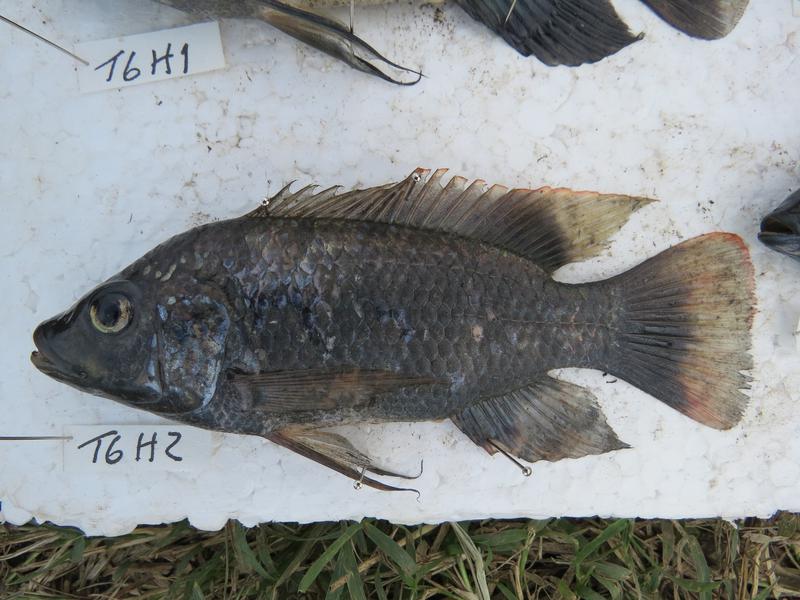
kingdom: Animalia
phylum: Chordata
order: Perciformes
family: Cichlidae
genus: Oreochromis
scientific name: Oreochromis urolepis
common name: Wami tilapia
